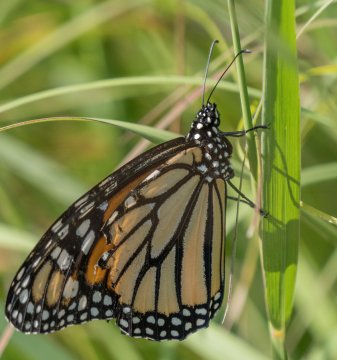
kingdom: Animalia
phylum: Arthropoda
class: Insecta
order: Lepidoptera
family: Nymphalidae
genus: Danaus
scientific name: Danaus plexippus
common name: Monarch
